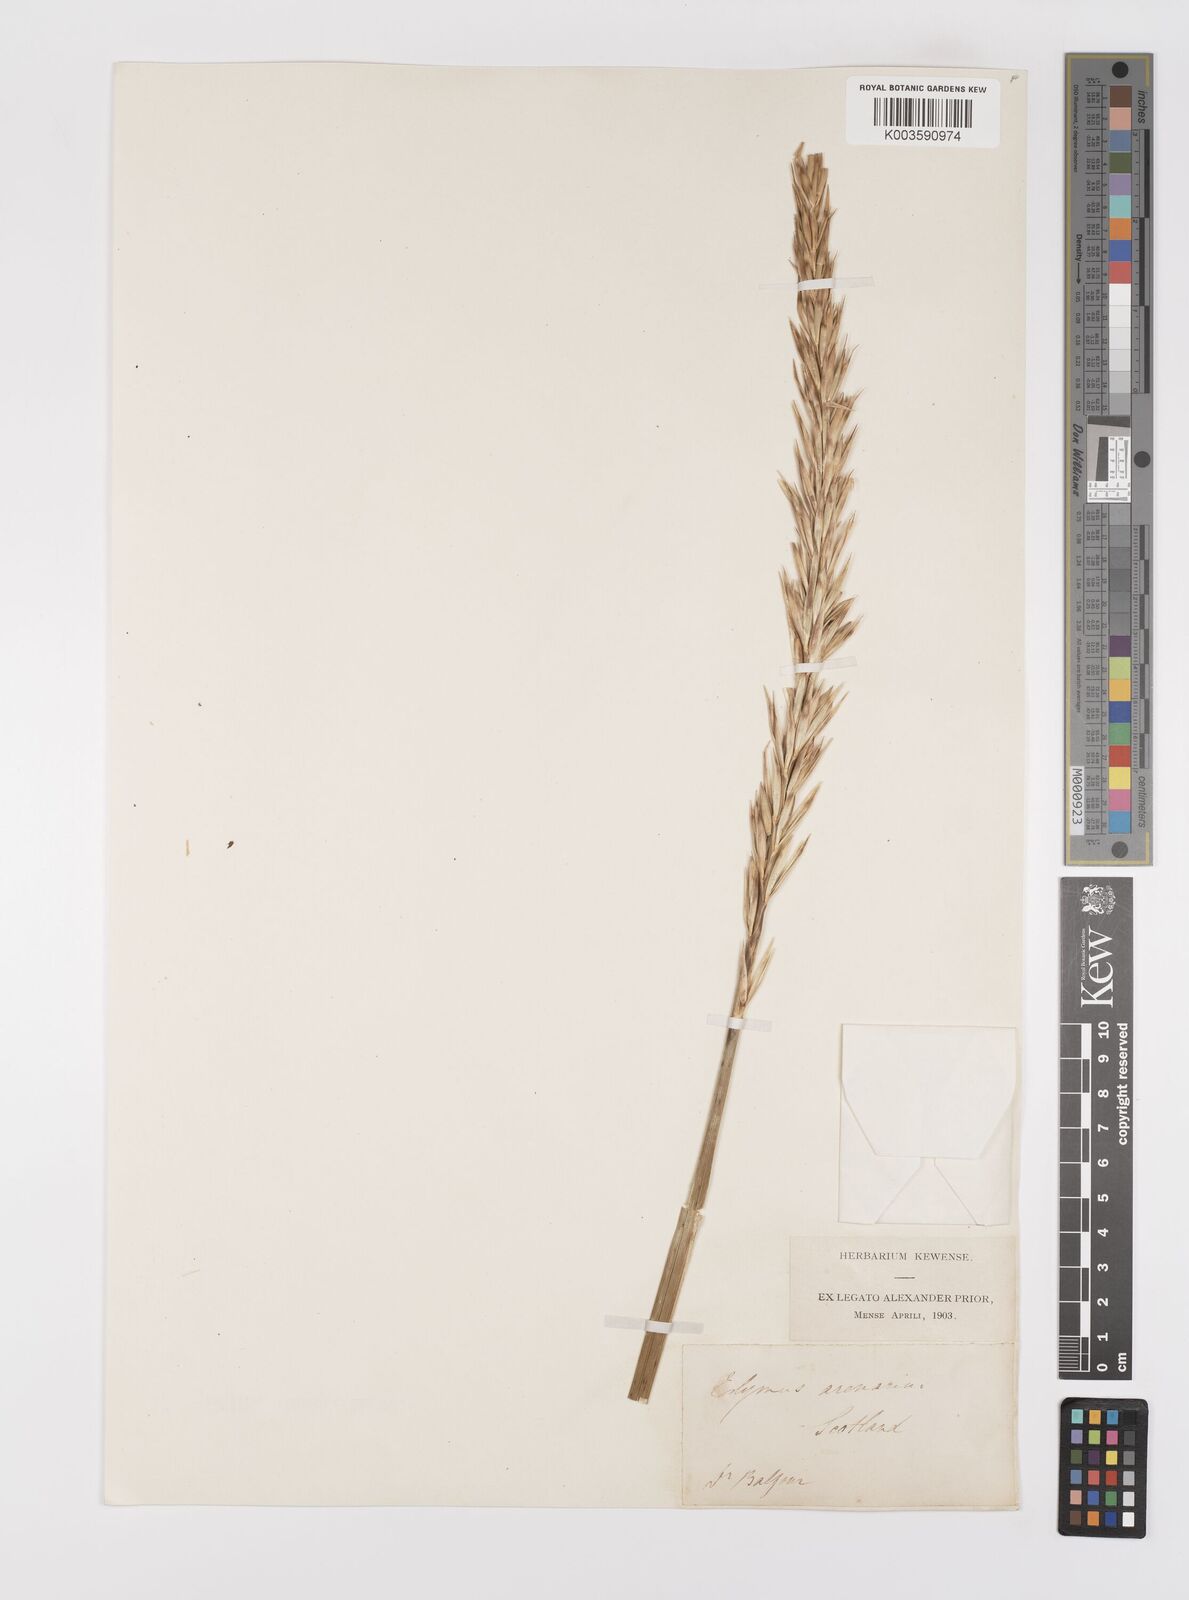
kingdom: Plantae
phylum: Tracheophyta
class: Liliopsida
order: Poales
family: Poaceae
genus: Leymus
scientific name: Leymus arenarius
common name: Lyme-grass
